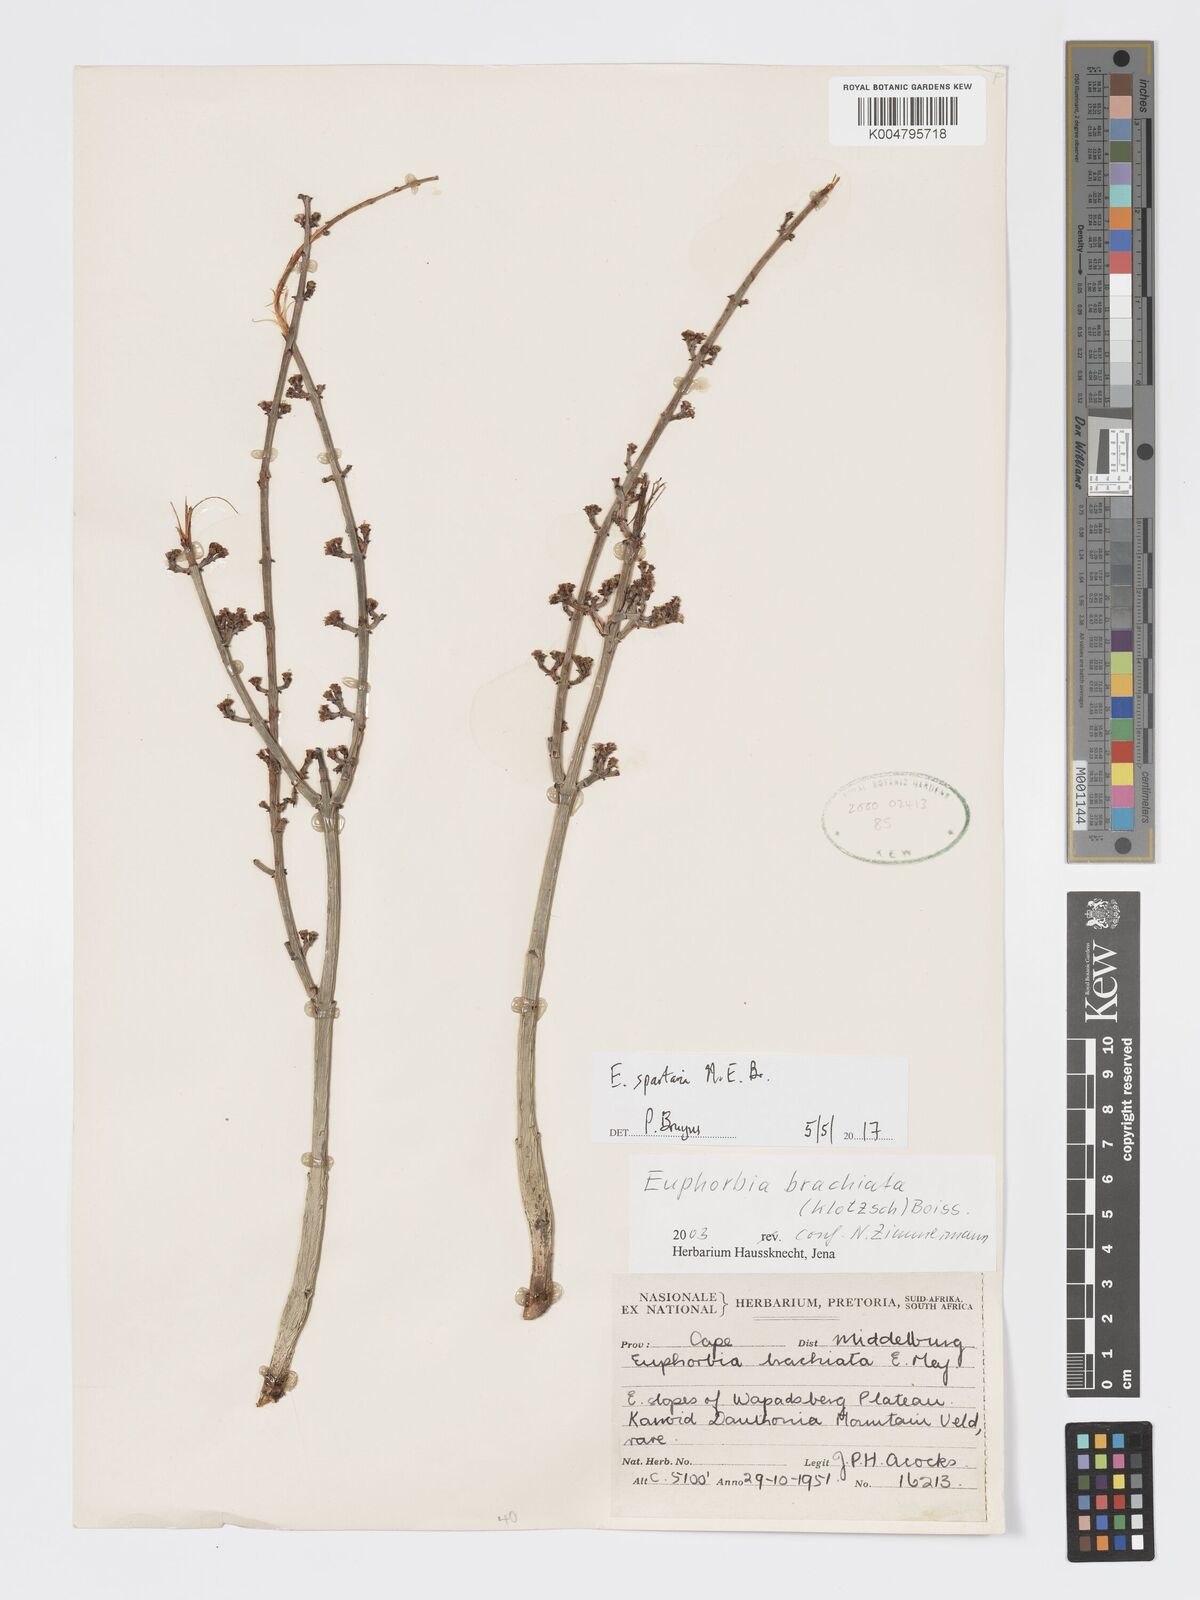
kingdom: Plantae
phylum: Tracheophyta
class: Magnoliopsida
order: Malpighiales
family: Euphorbiaceae
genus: Euphorbia
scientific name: Euphorbia spartaria
